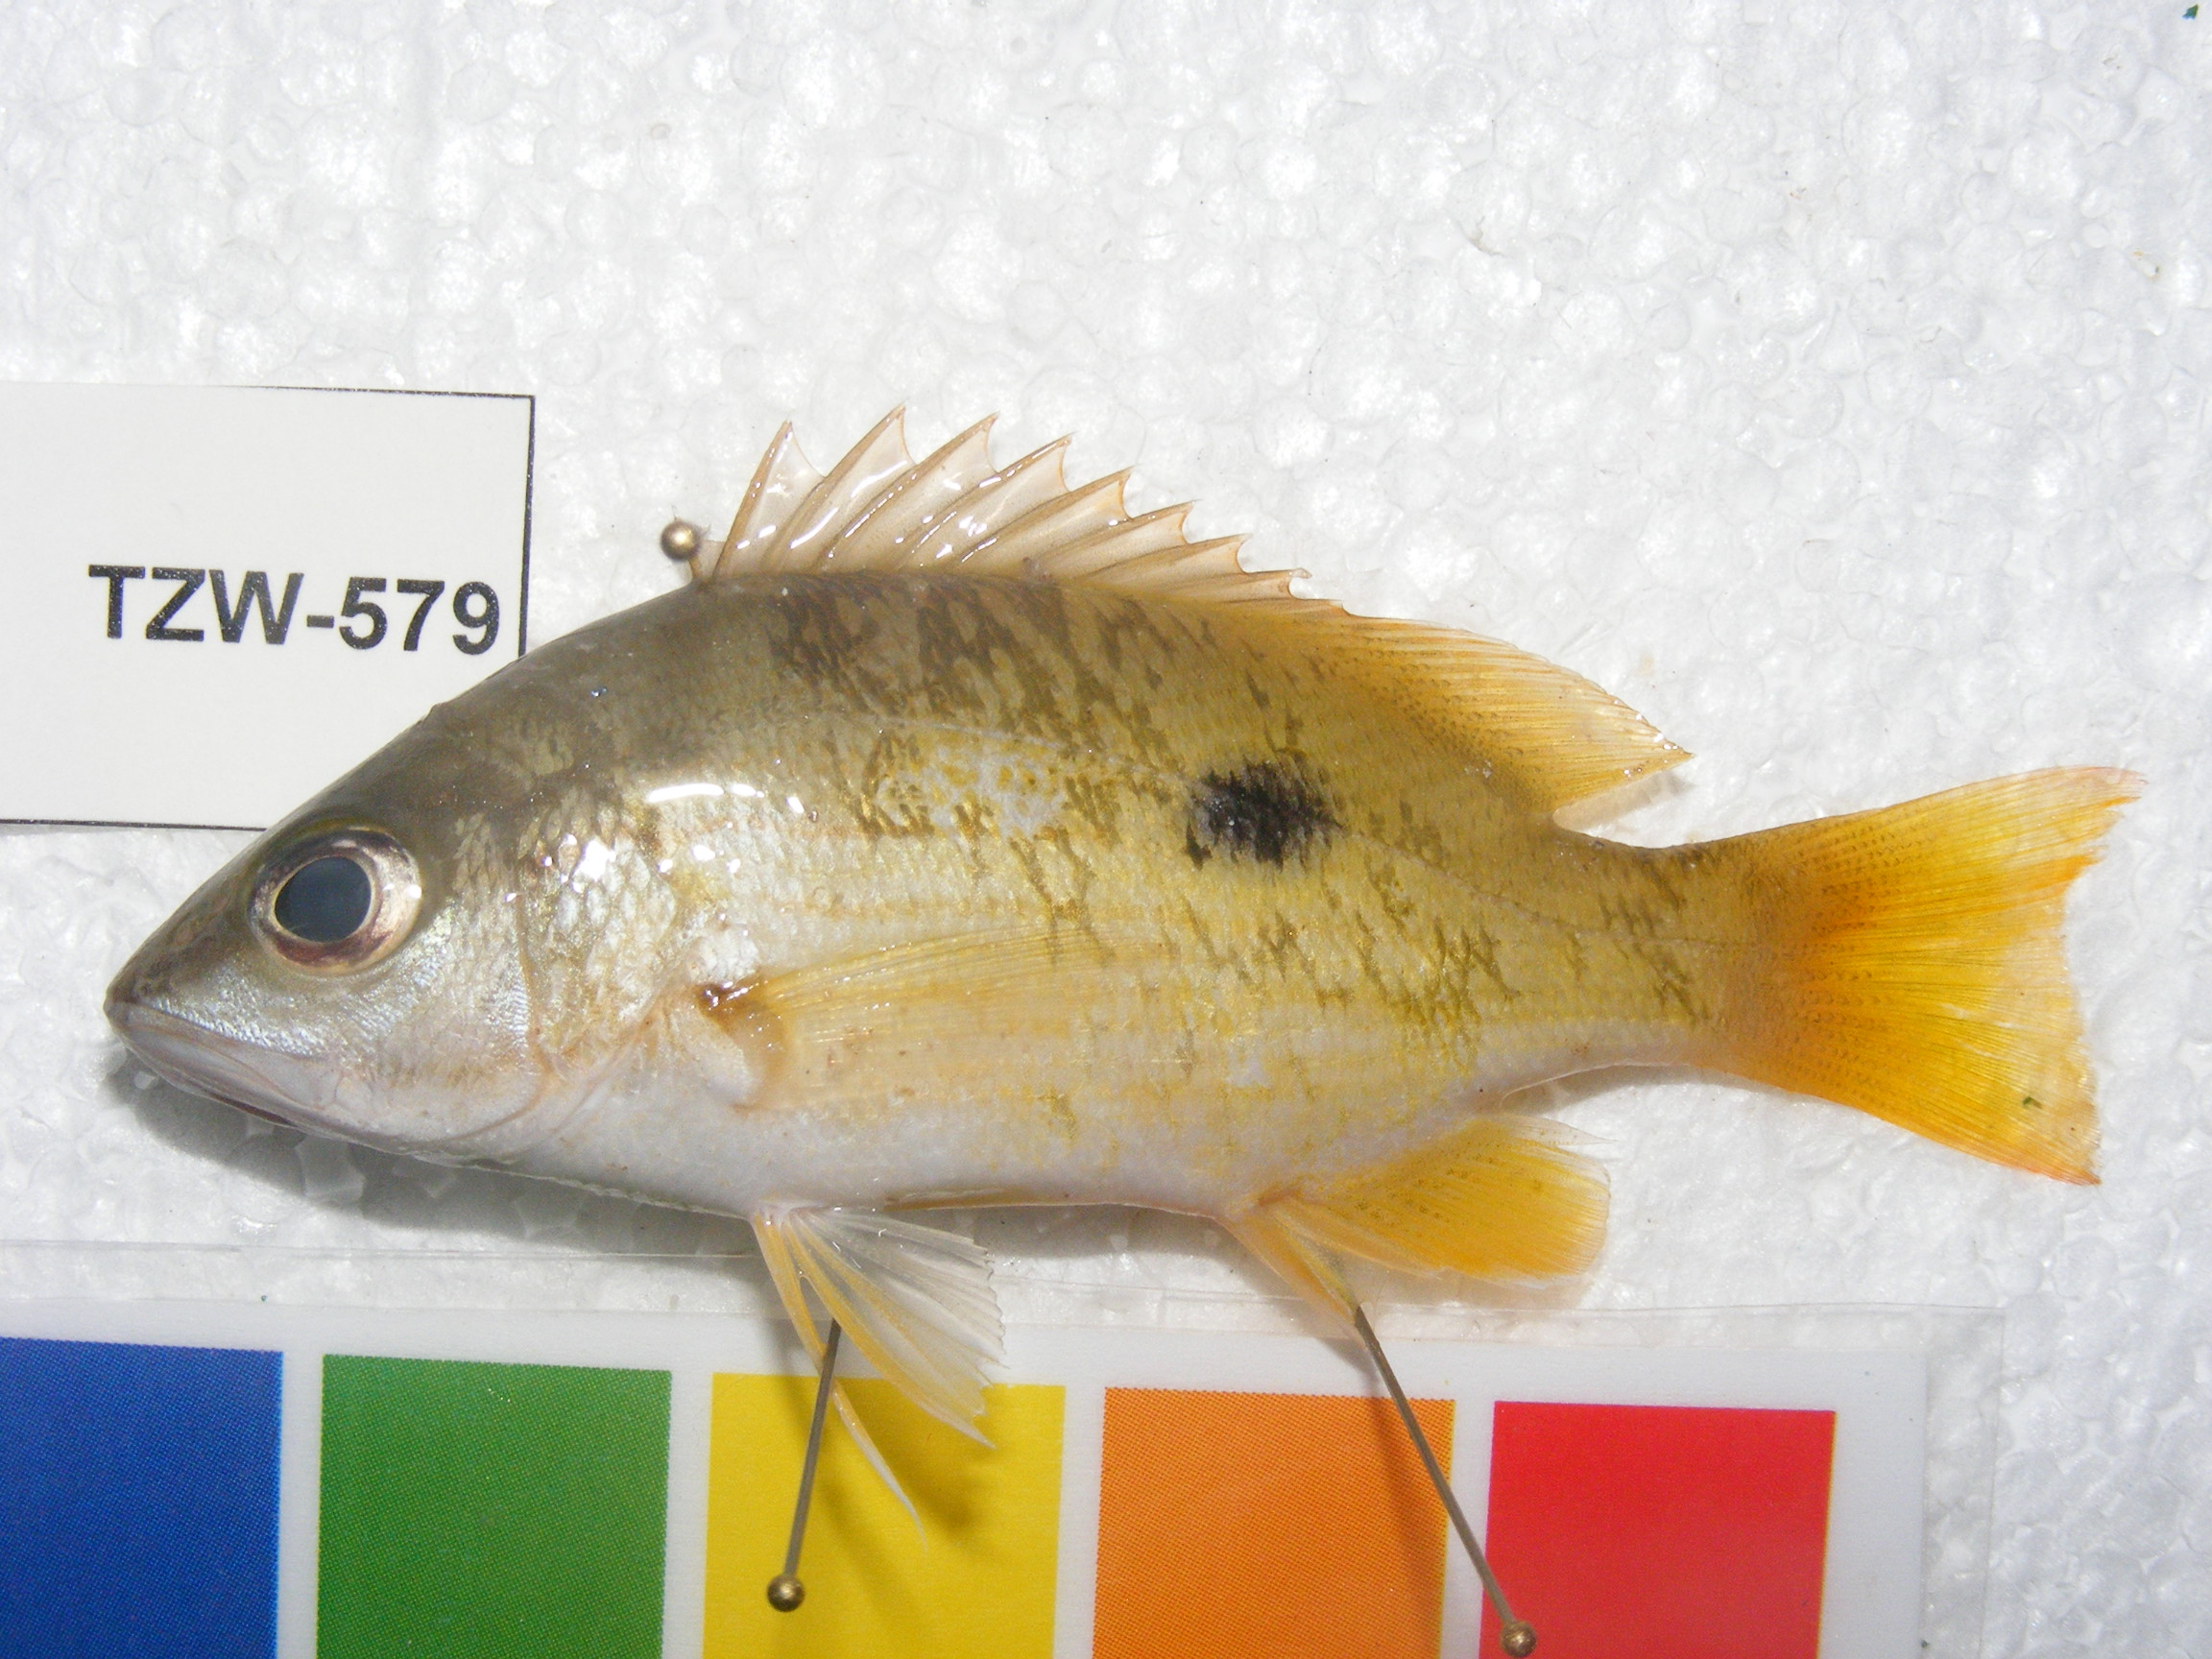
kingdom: Animalia
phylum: Chordata
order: Perciformes
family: Lutjanidae
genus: Lutjanus
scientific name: Lutjanus fulviflamma
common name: Blackspot snapper
